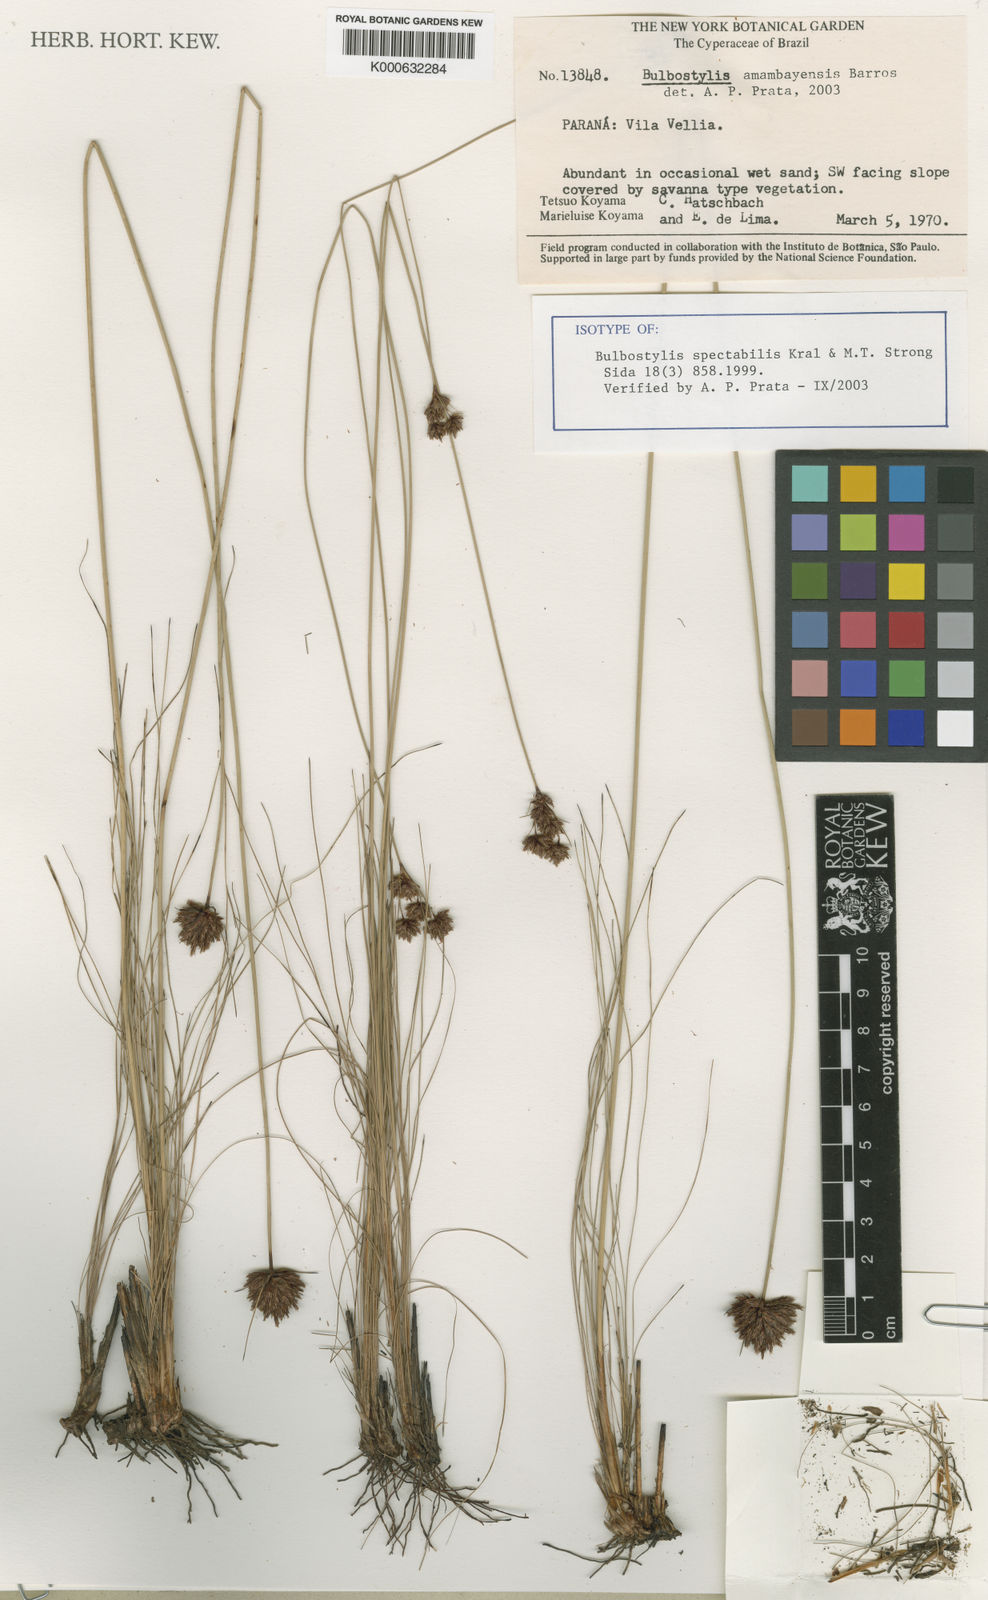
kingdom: Plantae
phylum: Tracheophyta
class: Liliopsida
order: Poales
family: Cyperaceae
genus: Bulbostylis
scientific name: Bulbostylis amambayensis
